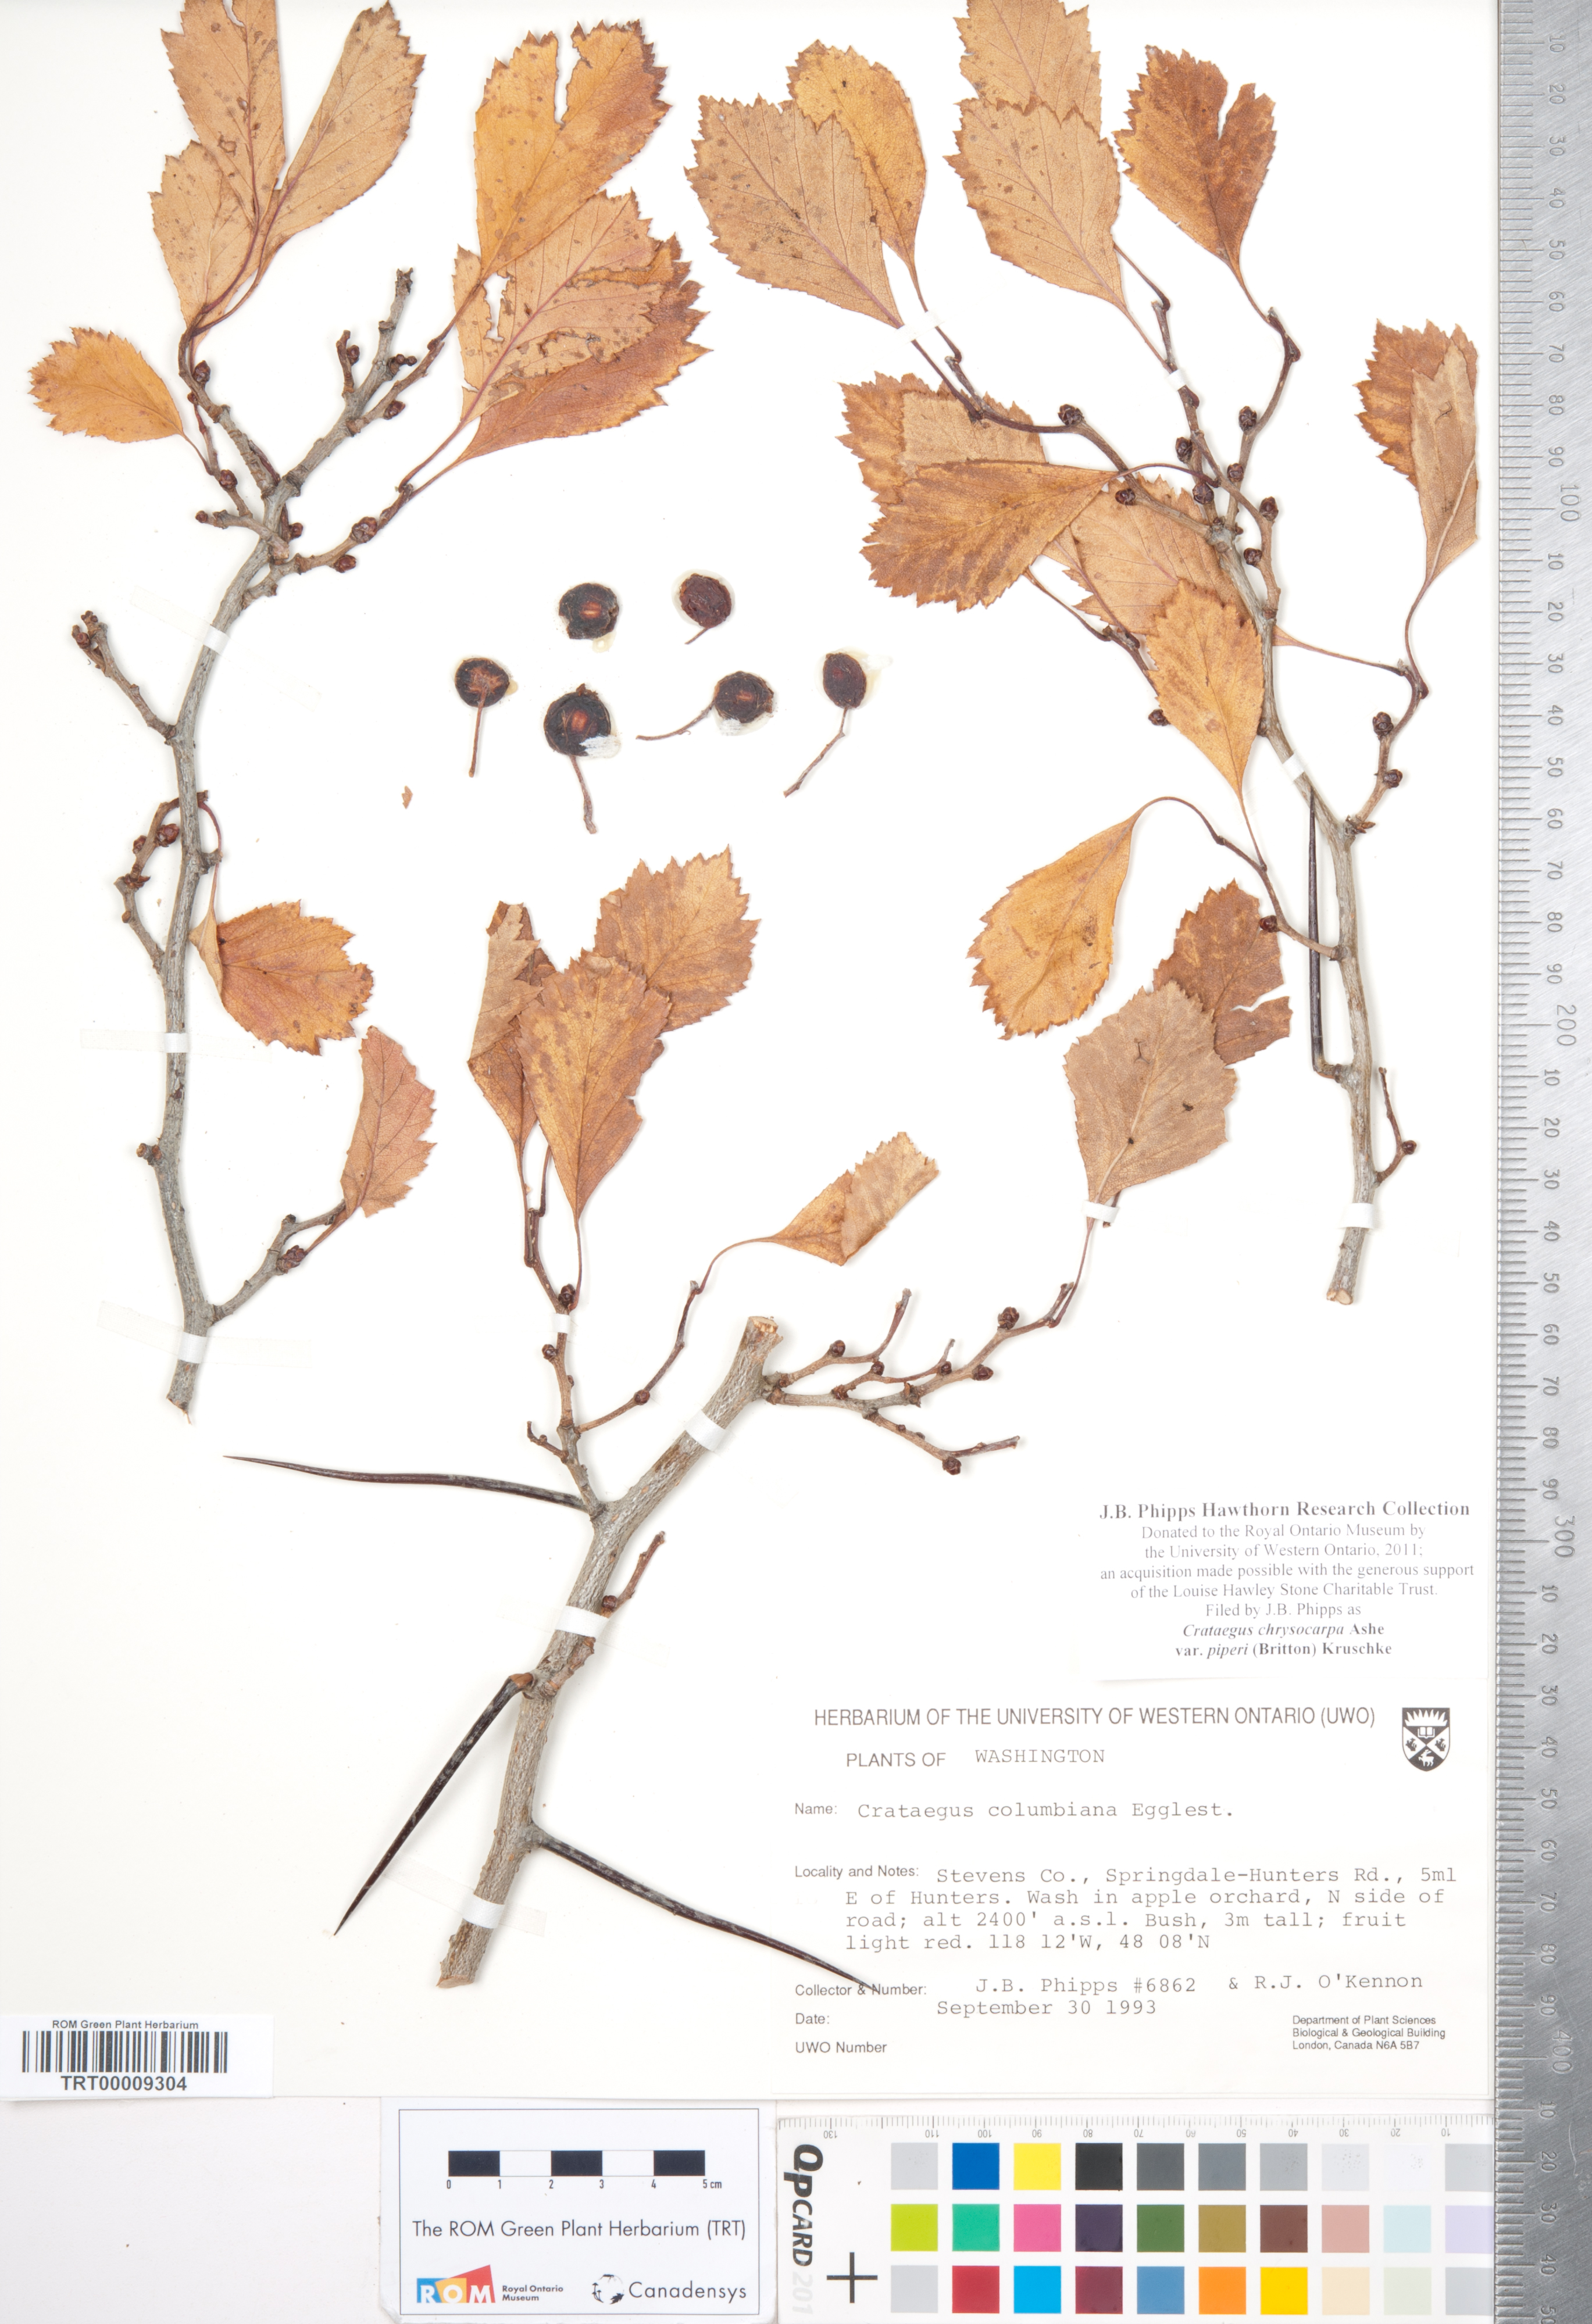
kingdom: Plantae
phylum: Tracheophyta
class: Magnoliopsida
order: Rosales
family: Rosaceae
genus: Crataegus
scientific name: Crataegus piperi
